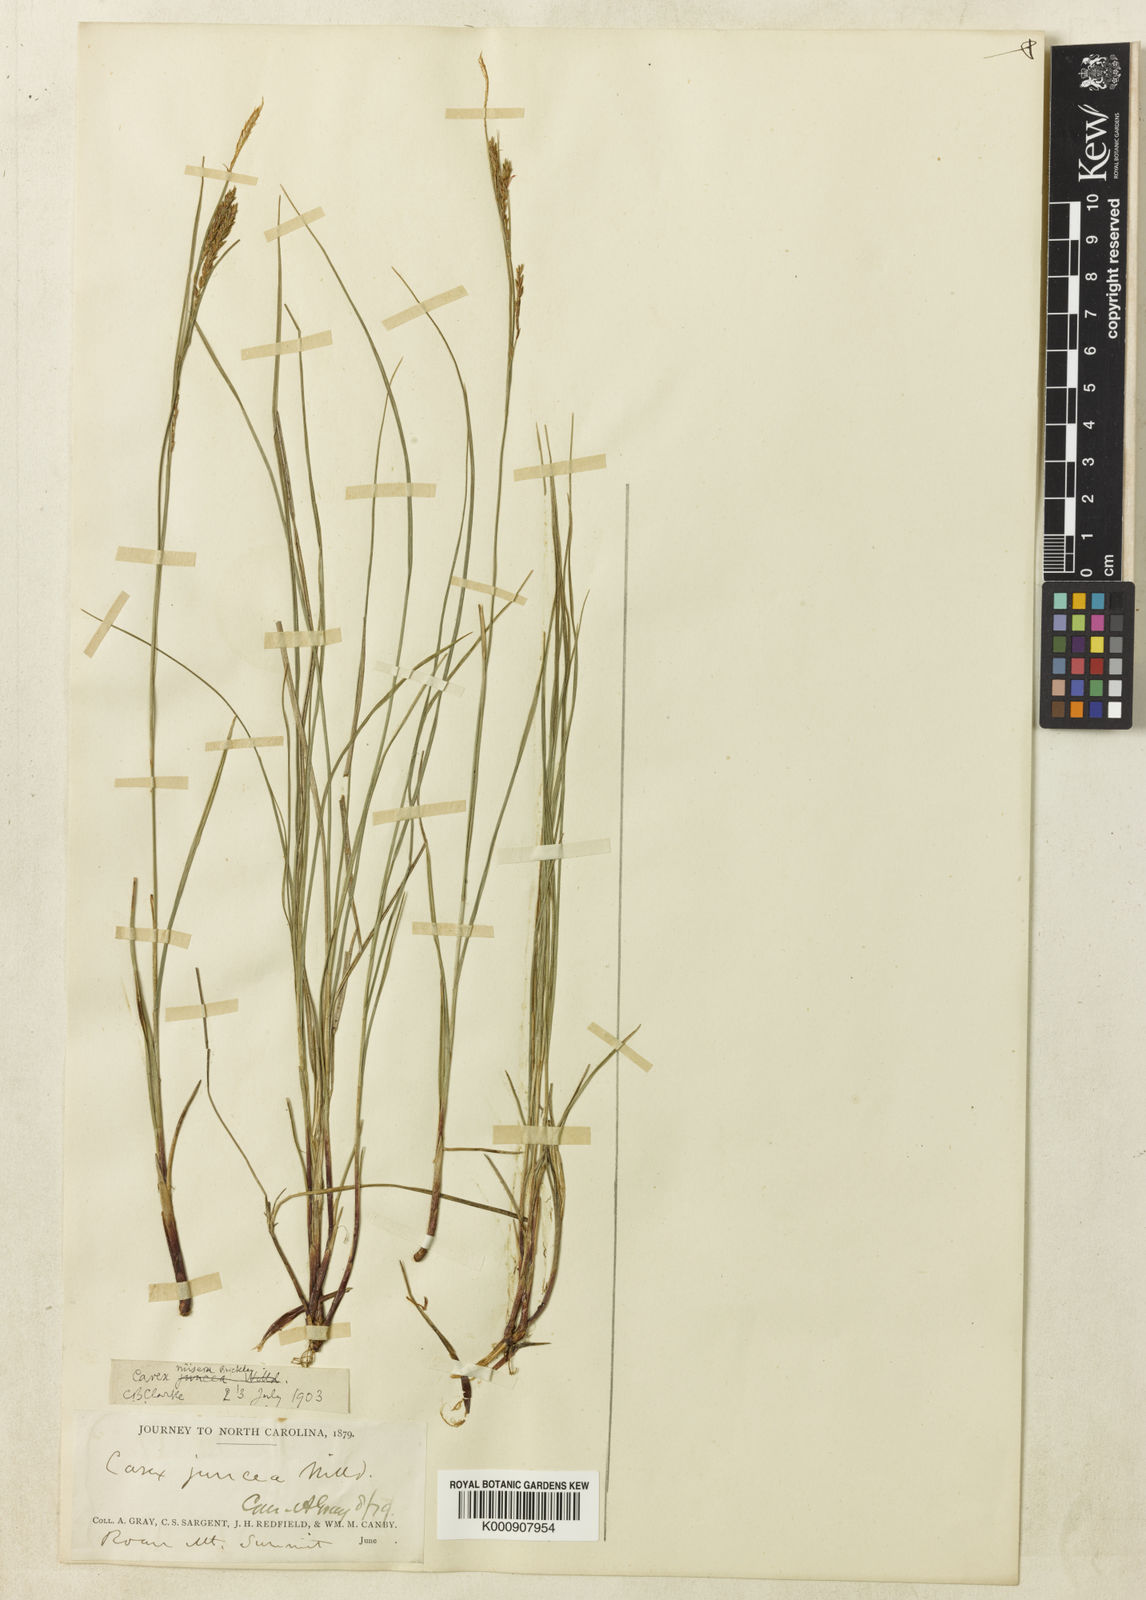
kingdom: Plantae
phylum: Tracheophyta
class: Liliopsida
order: Poales
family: Cyperaceae
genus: Carex
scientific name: Carex misera
